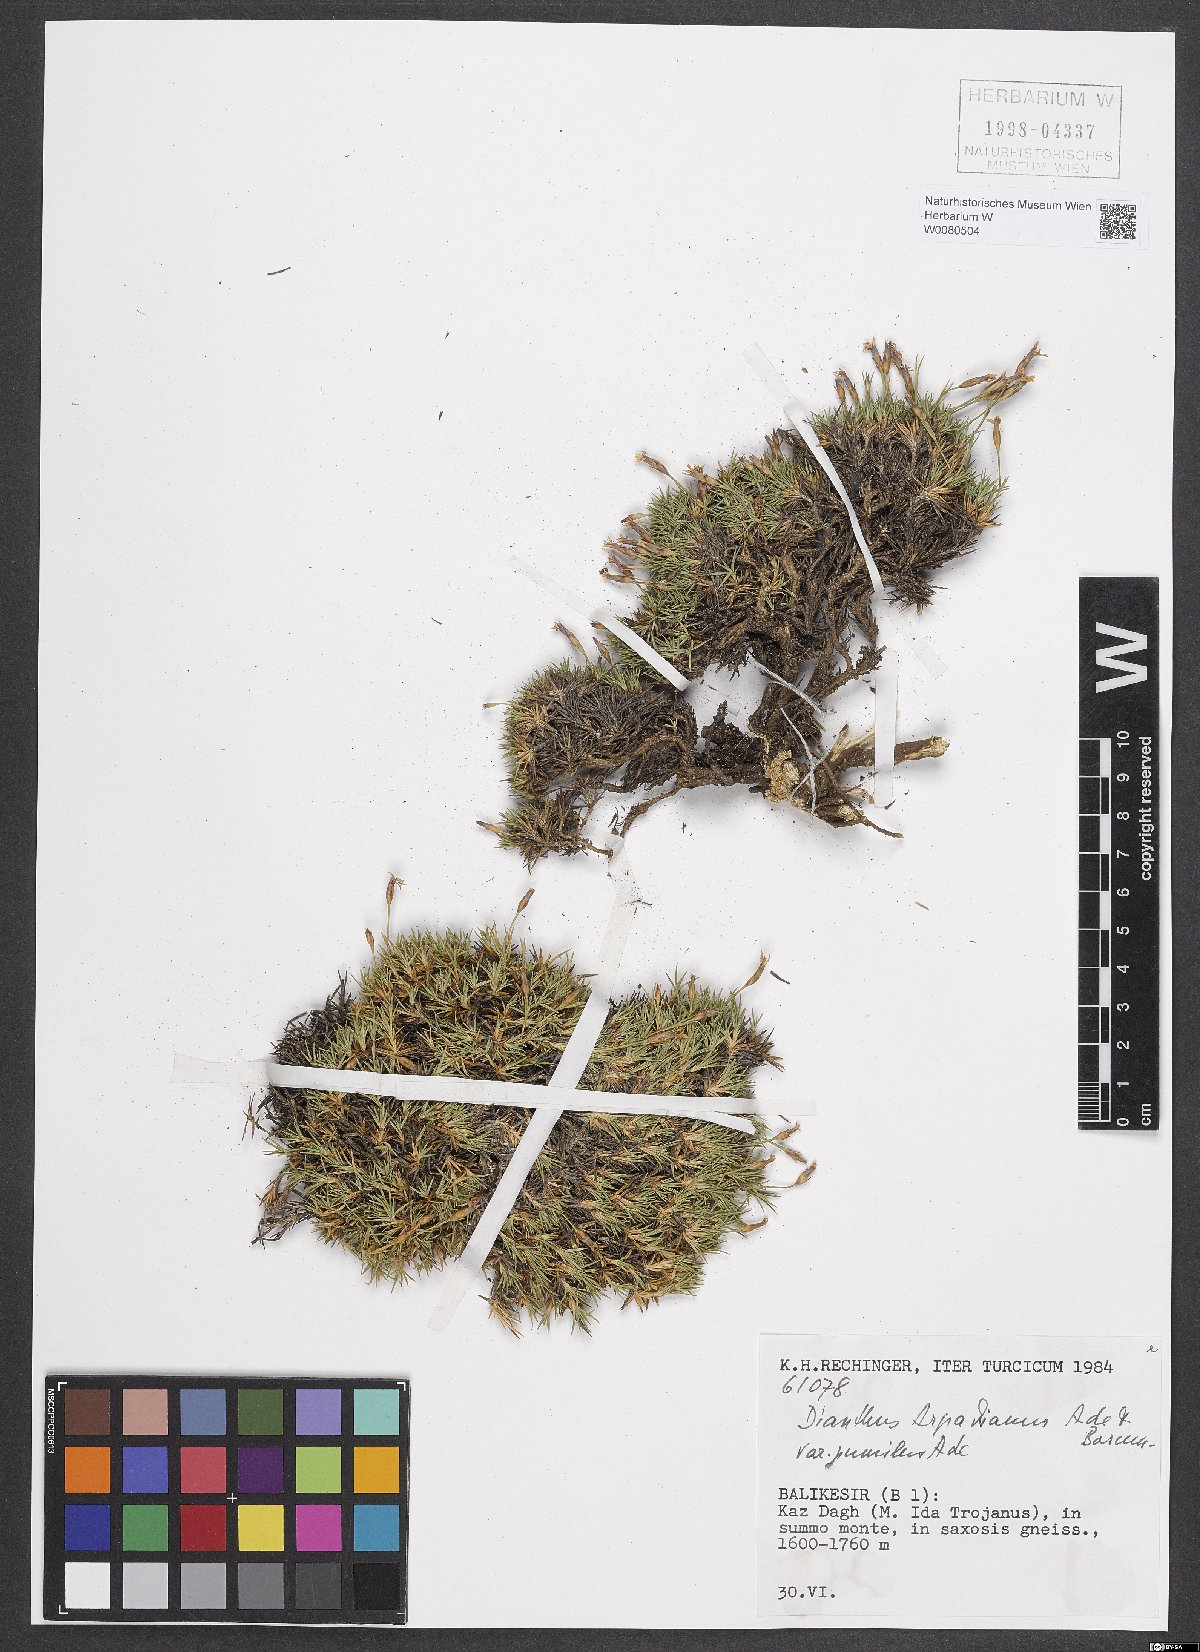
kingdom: Plantae
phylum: Tracheophyta
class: Magnoliopsida
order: Caryophyllales
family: Caryophyllaceae
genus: Dianthus
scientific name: Dianthus arpadianus
